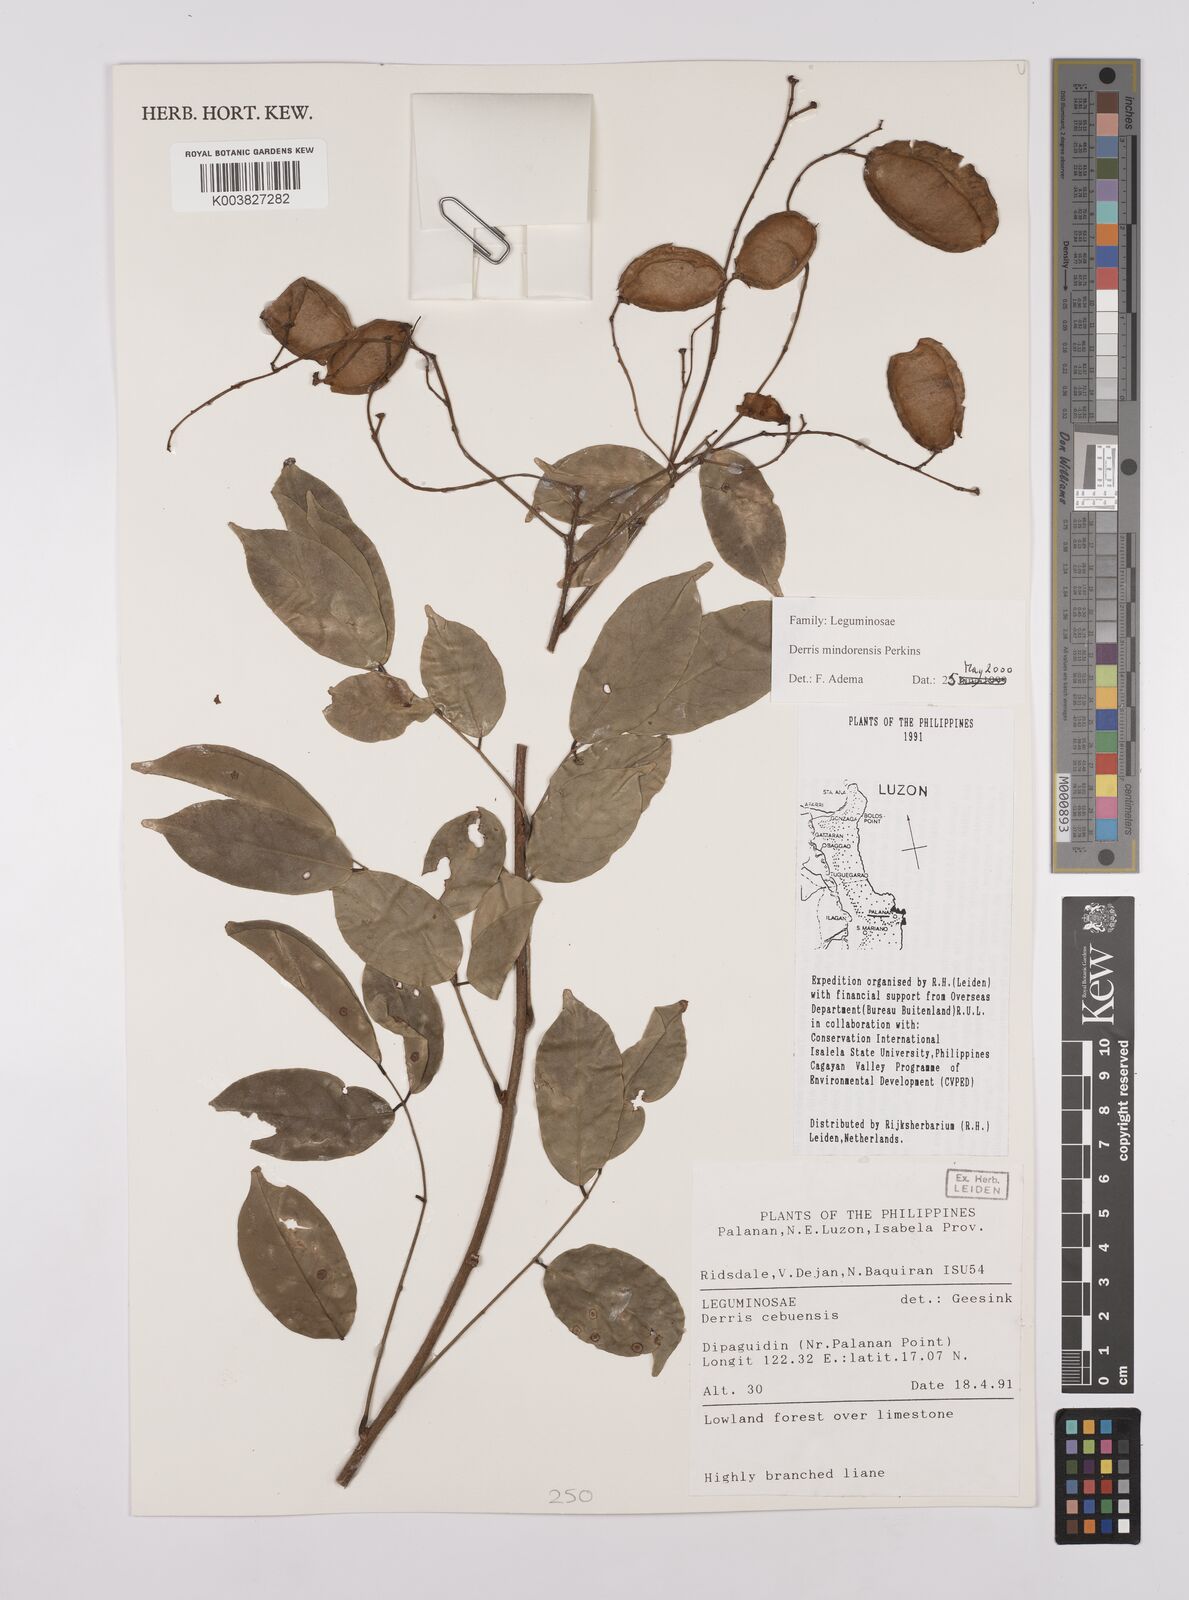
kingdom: Plantae
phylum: Tracheophyta
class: Magnoliopsida
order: Fabales
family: Fabaceae
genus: Derris
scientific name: Derris pubipetala
